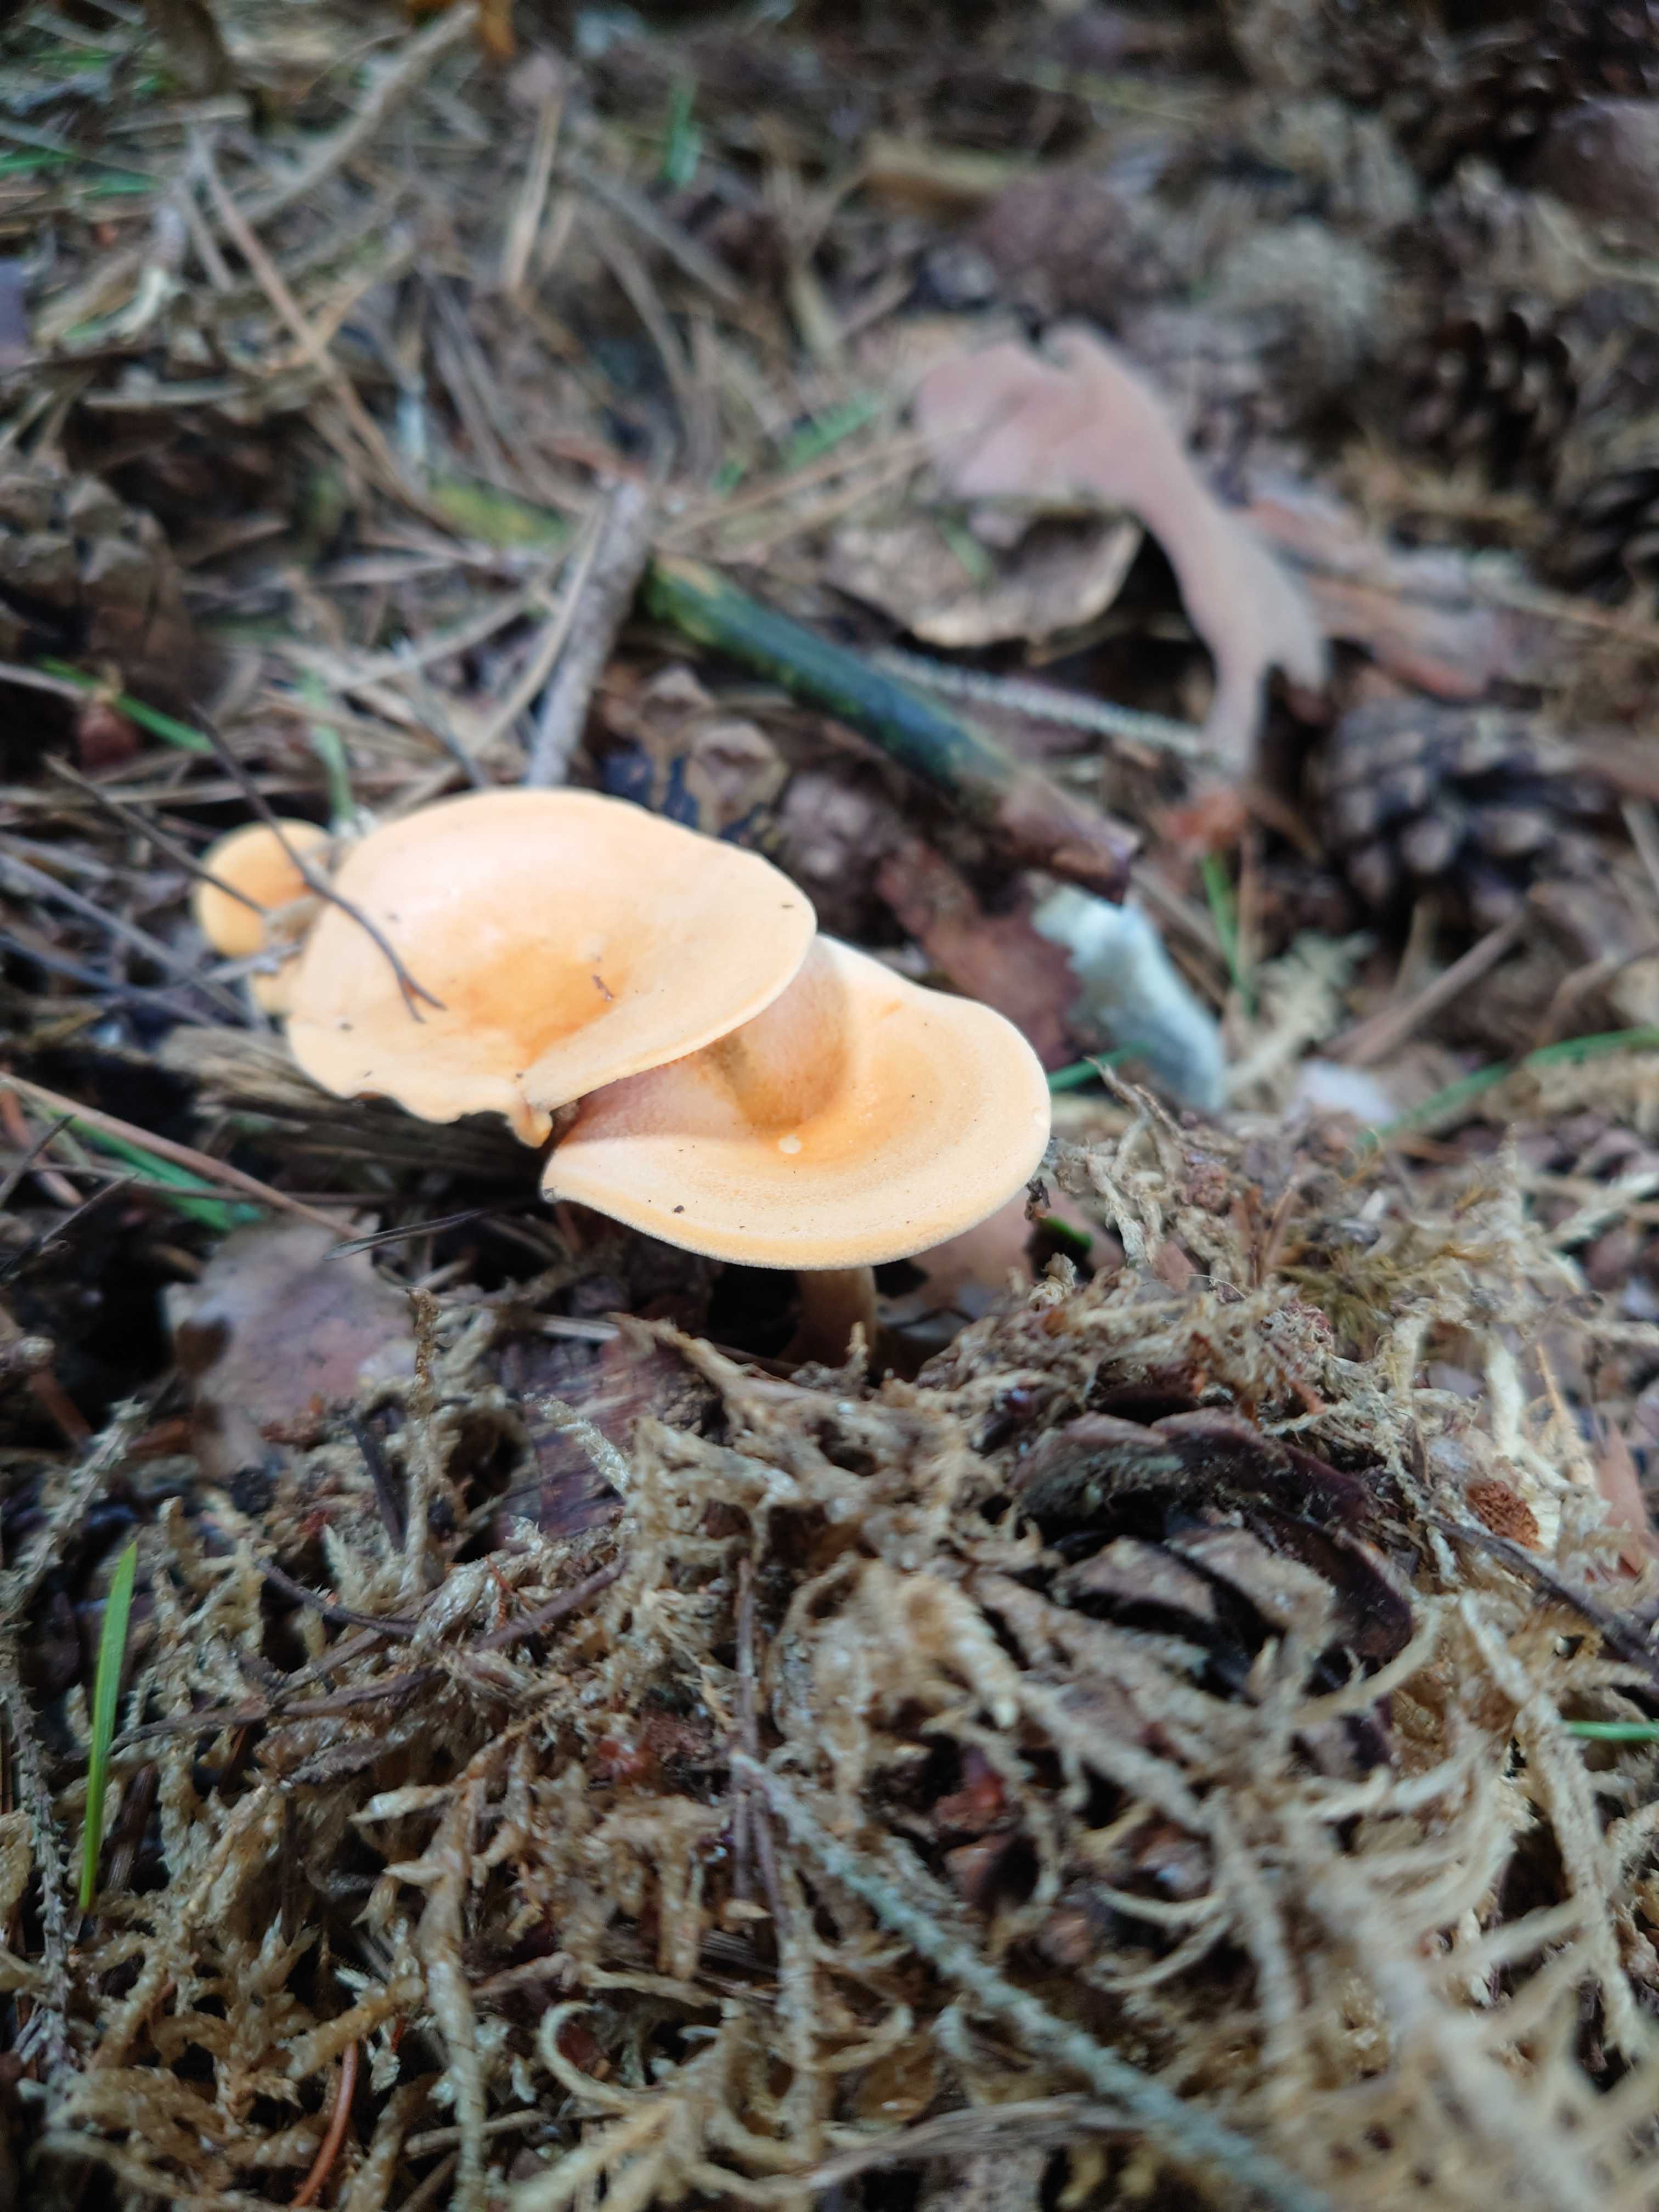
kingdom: Fungi
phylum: Basidiomycota
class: Agaricomycetes
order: Boletales
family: Hygrophoropsidaceae
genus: Hygrophoropsis
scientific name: Hygrophoropsis aurantiaca
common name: almindelig orangekantarel
